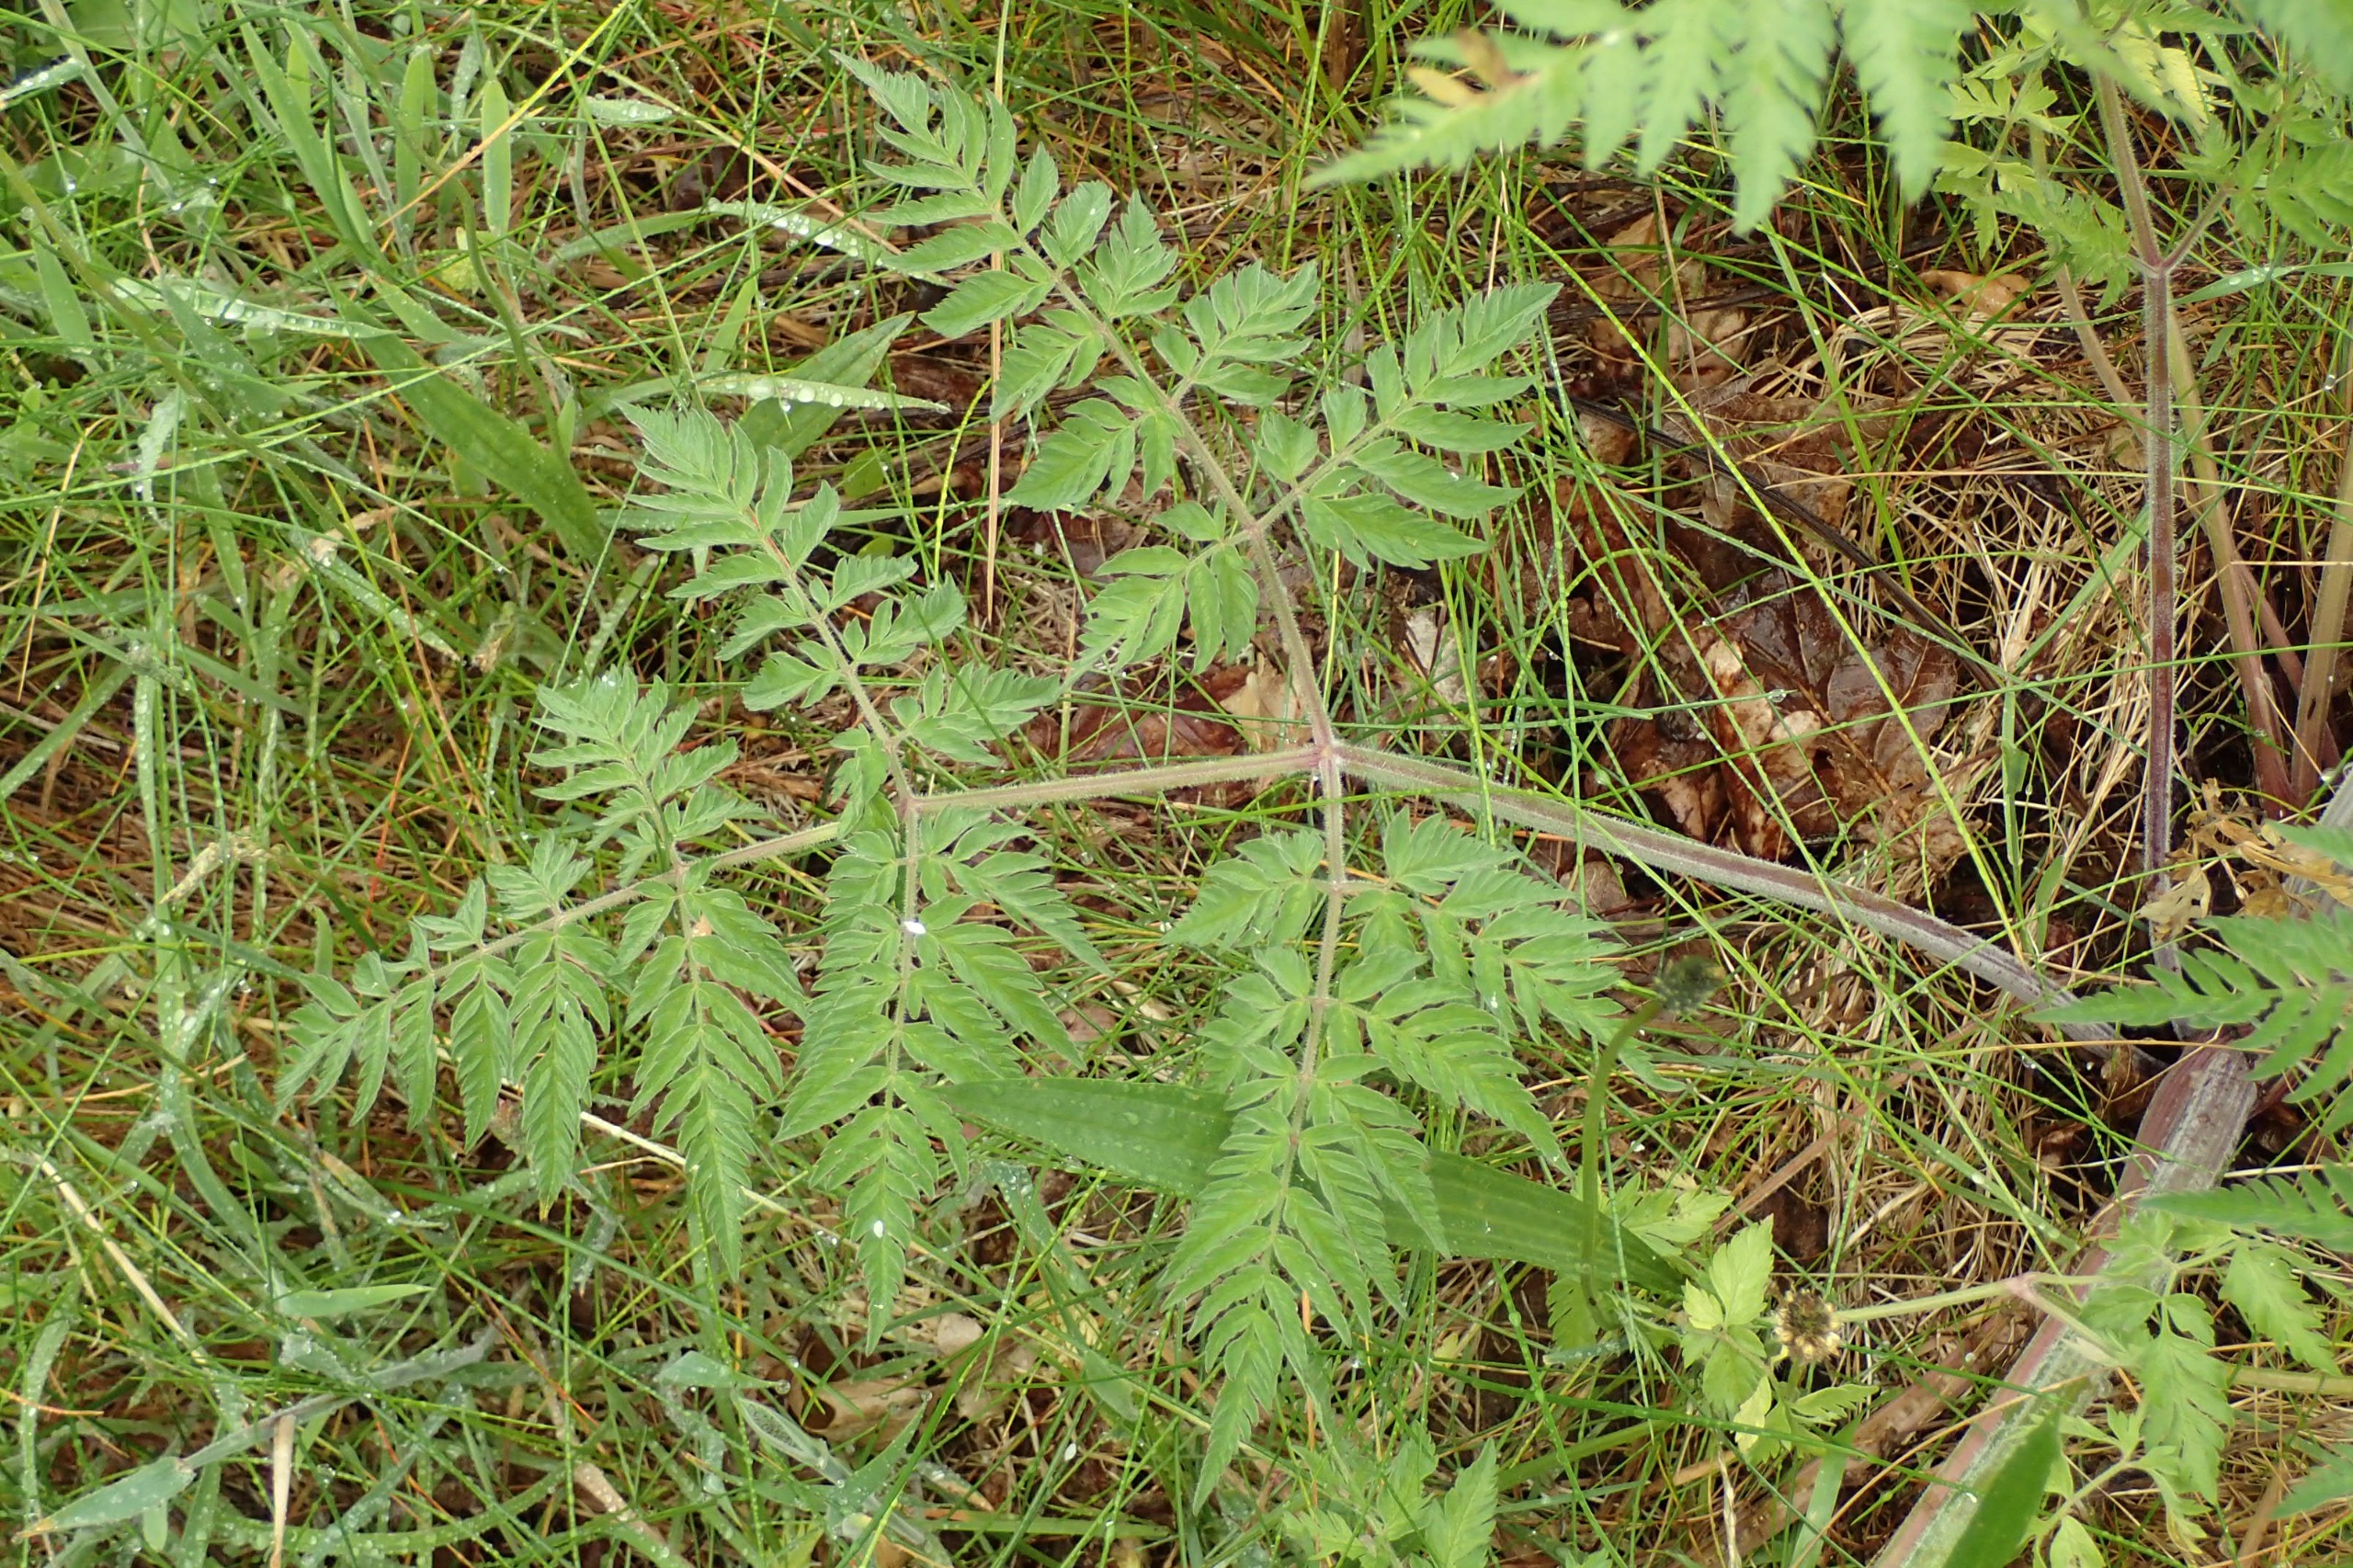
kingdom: Plantae
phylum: Tracheophyta
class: Magnoliopsida
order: Apiales
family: Apiaceae
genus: Anthriscus
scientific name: Anthriscus sylvestris
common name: Vild kørvel
